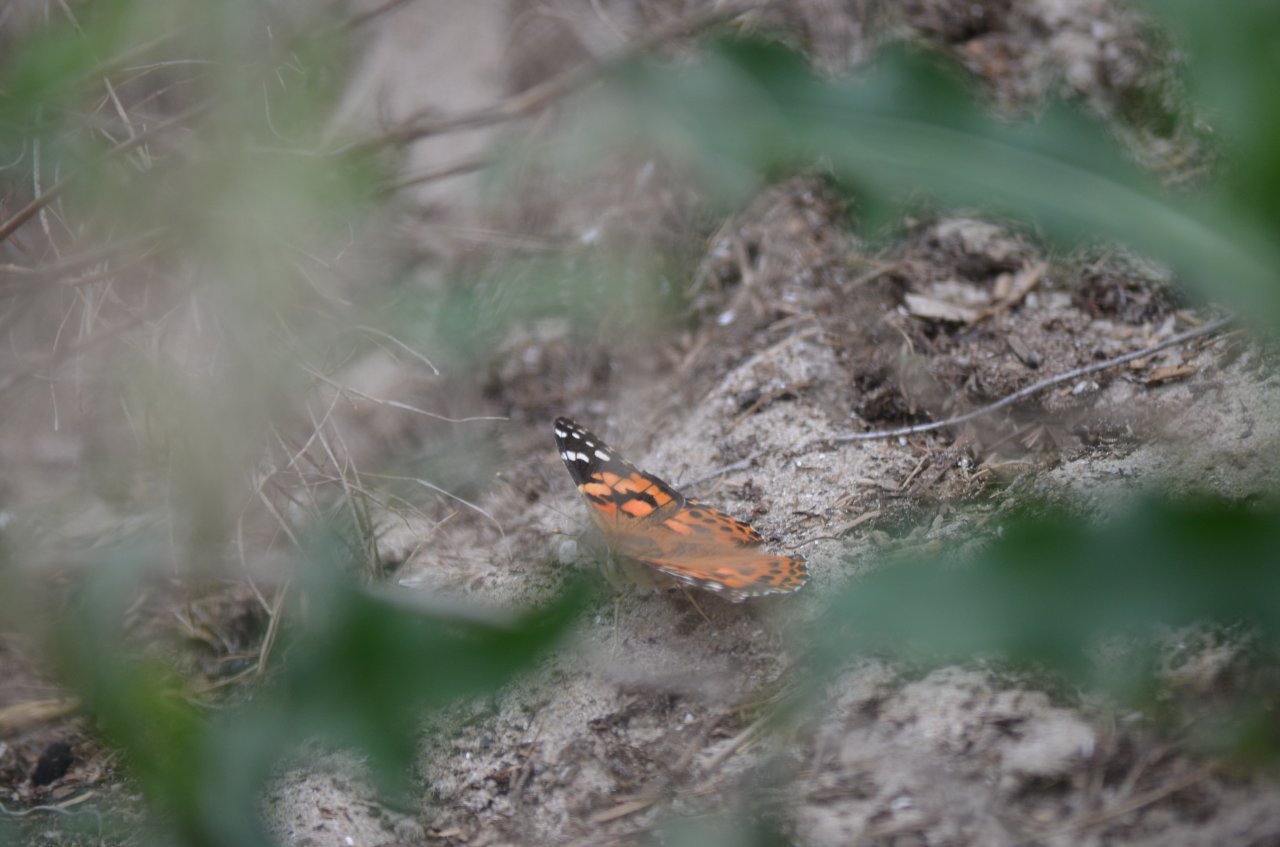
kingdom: Animalia
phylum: Arthropoda
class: Insecta
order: Lepidoptera
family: Nymphalidae
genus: Vanessa
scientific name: Vanessa cardui
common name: Painted Lady
